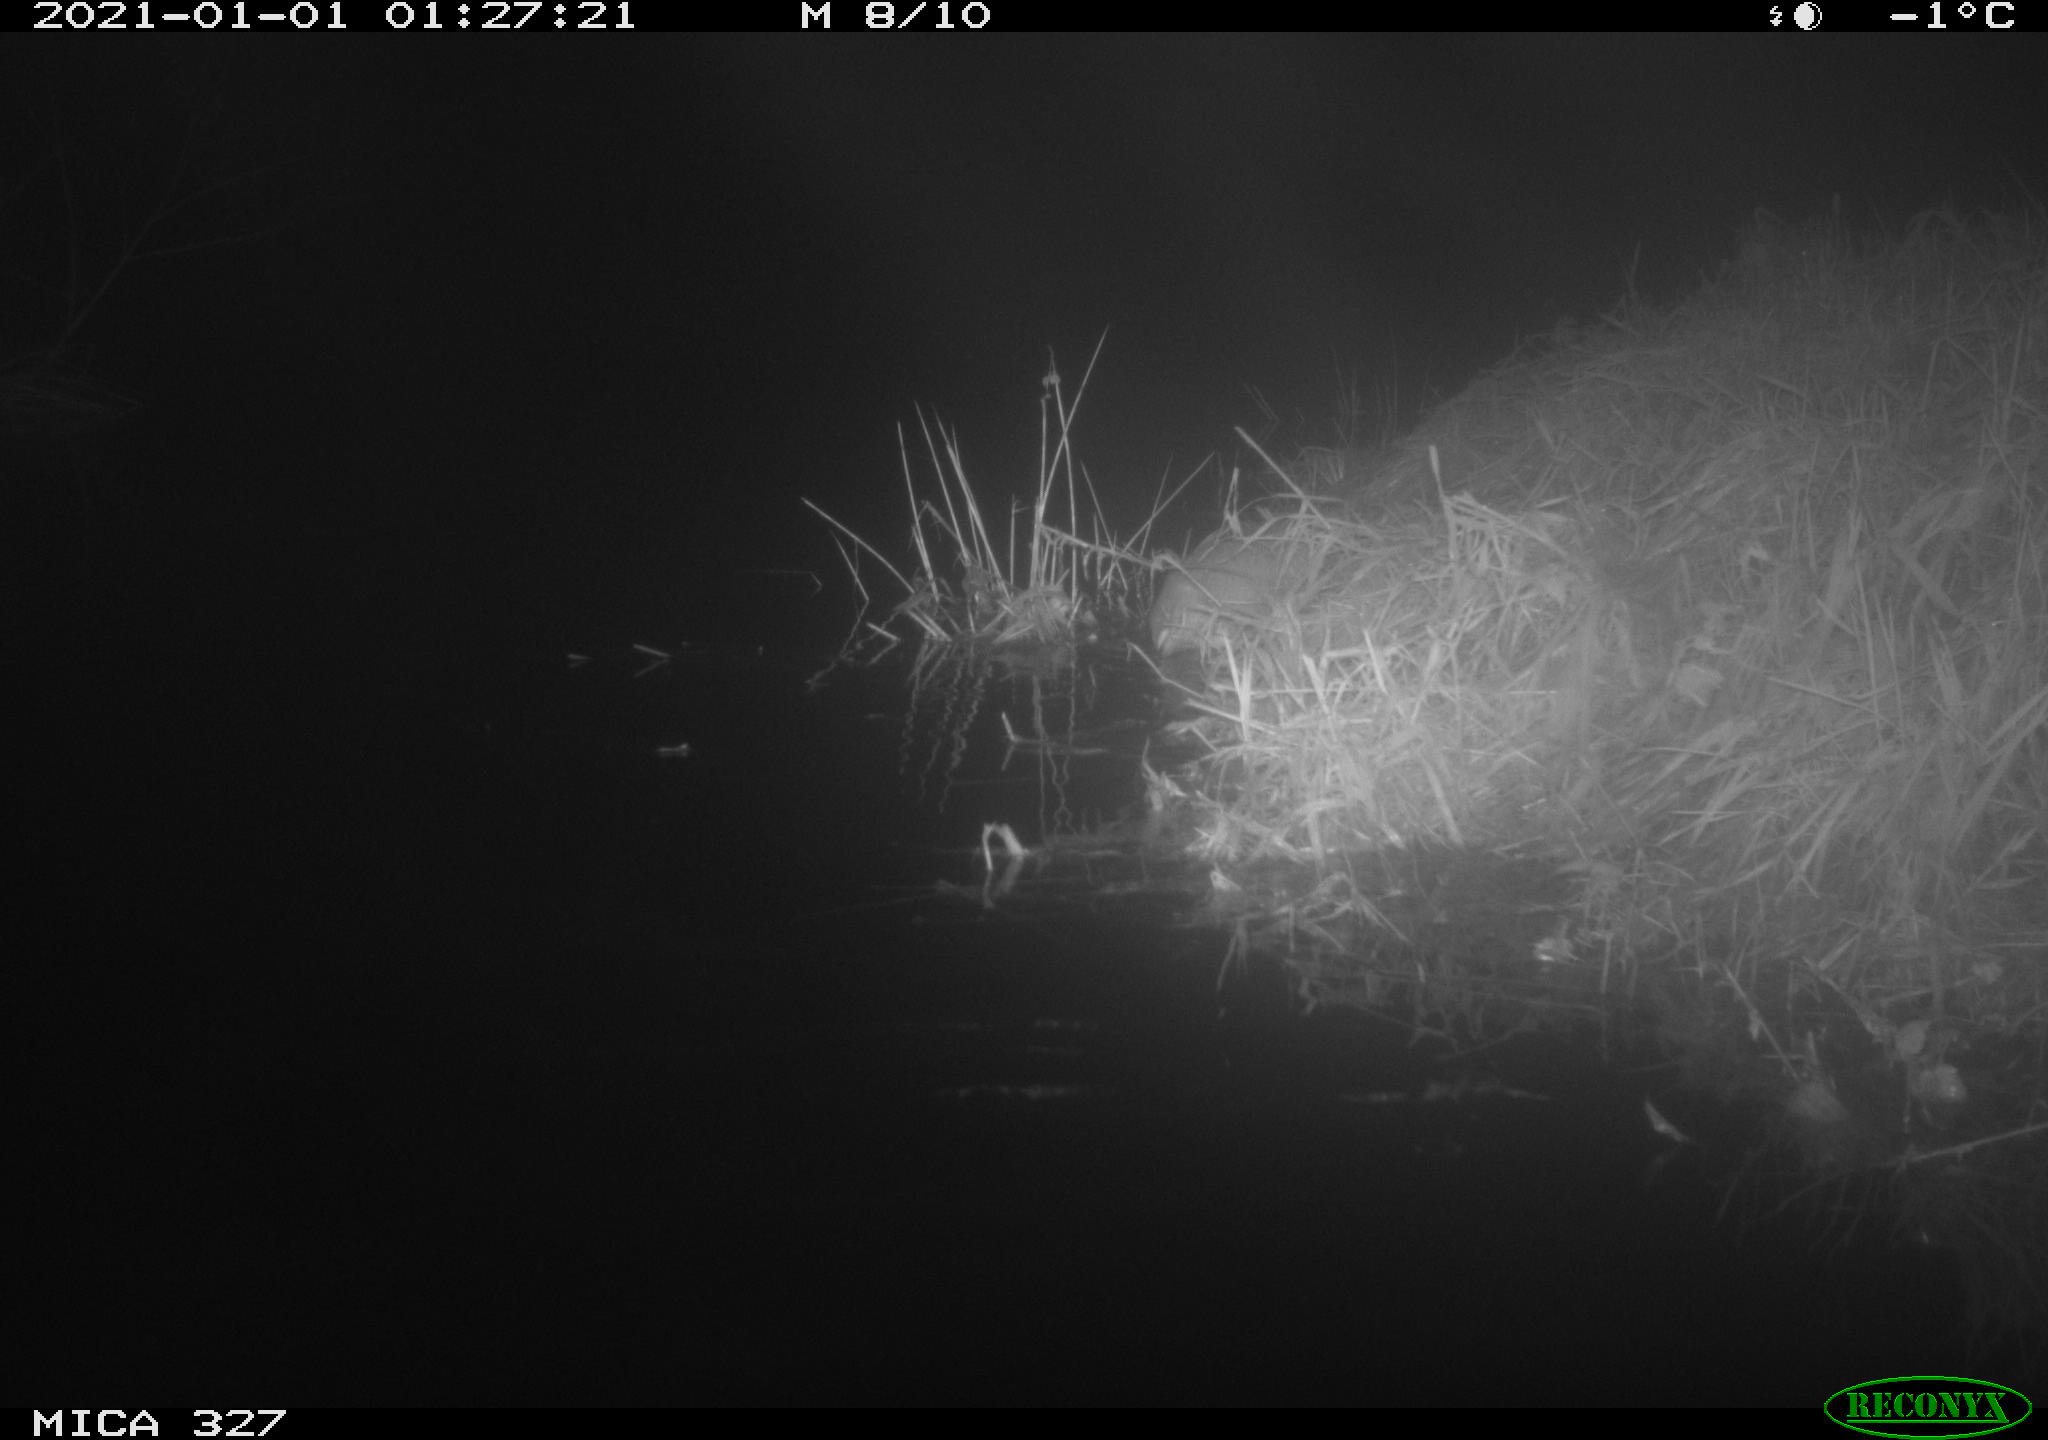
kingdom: Animalia
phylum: Chordata
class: Mammalia
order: Rodentia
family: Cricetidae
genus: Ondatra
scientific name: Ondatra zibethicus
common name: Muskrat
